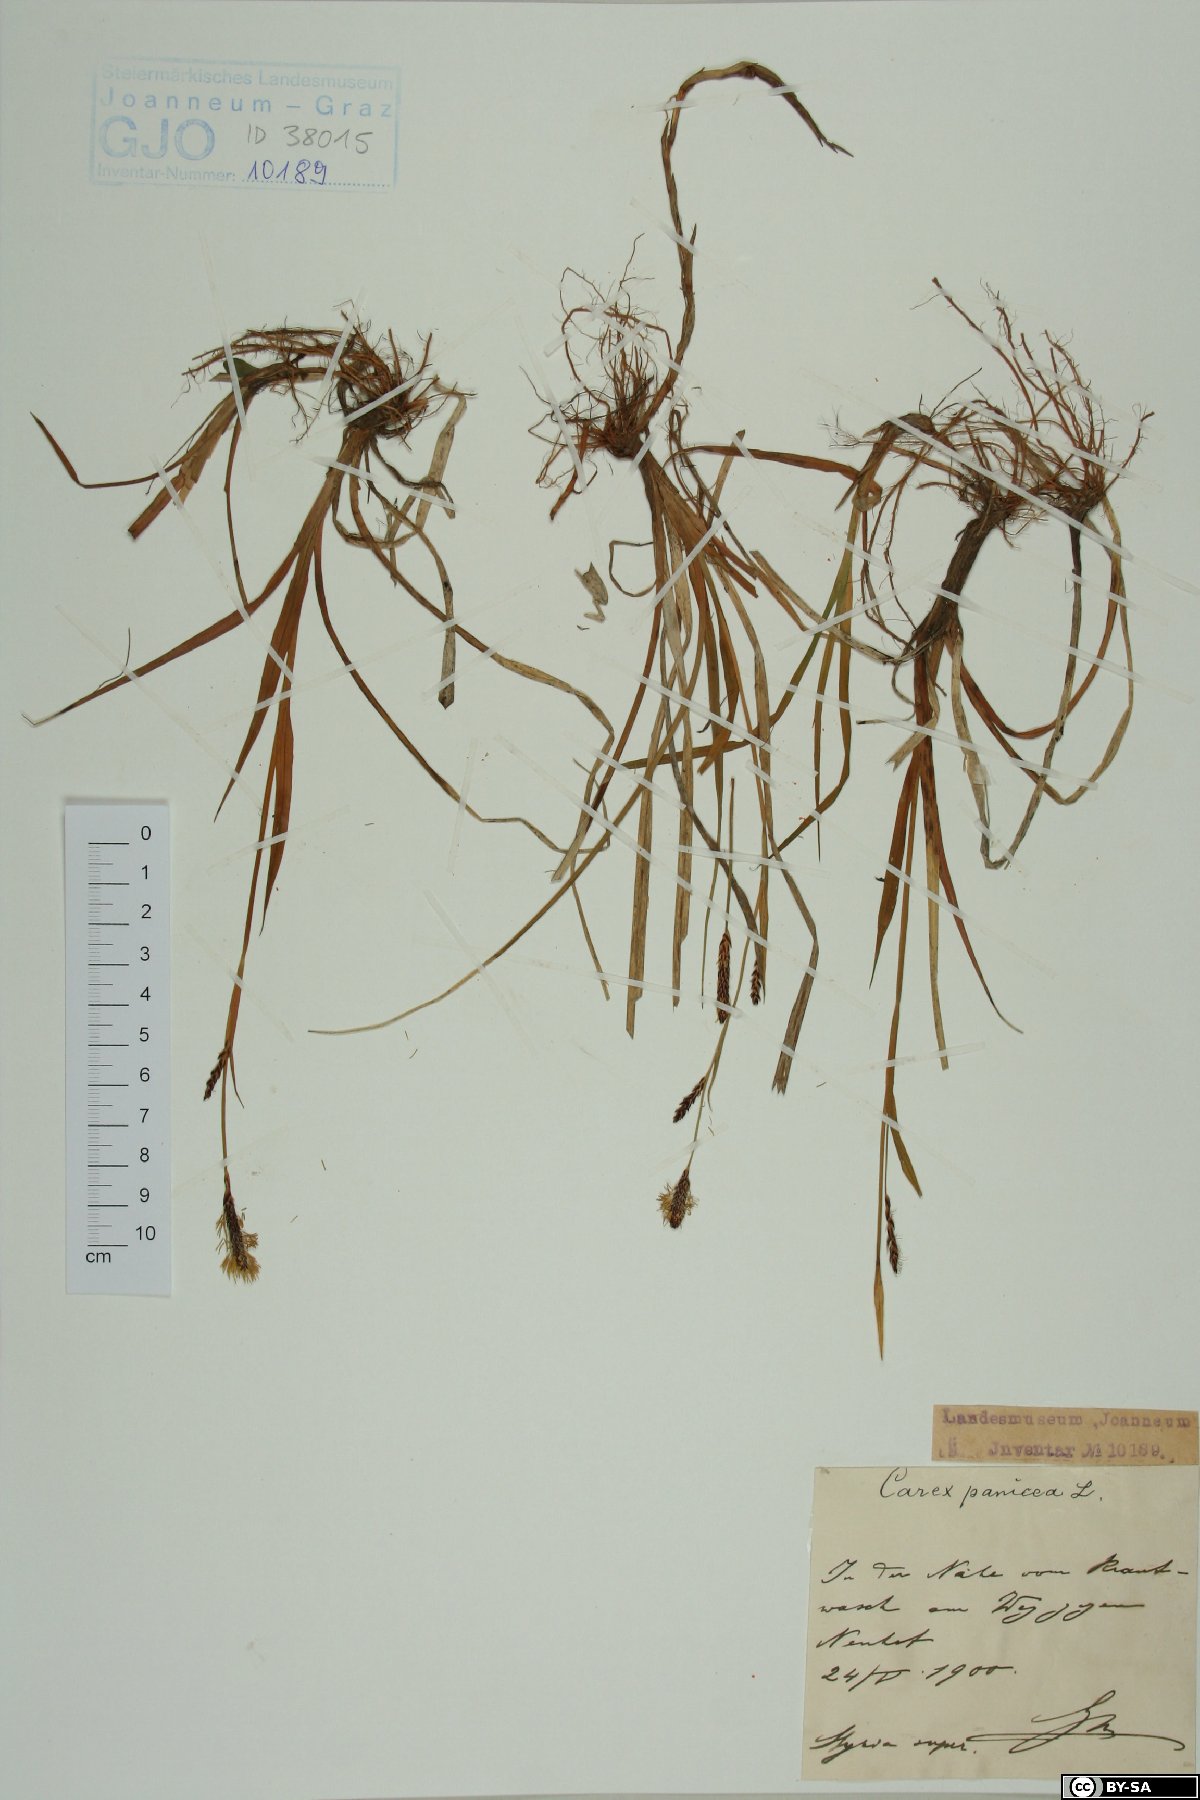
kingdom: Plantae
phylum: Tracheophyta
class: Liliopsida
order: Poales
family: Cyperaceae
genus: Carex
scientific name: Carex panicea
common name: Carnation sedge
